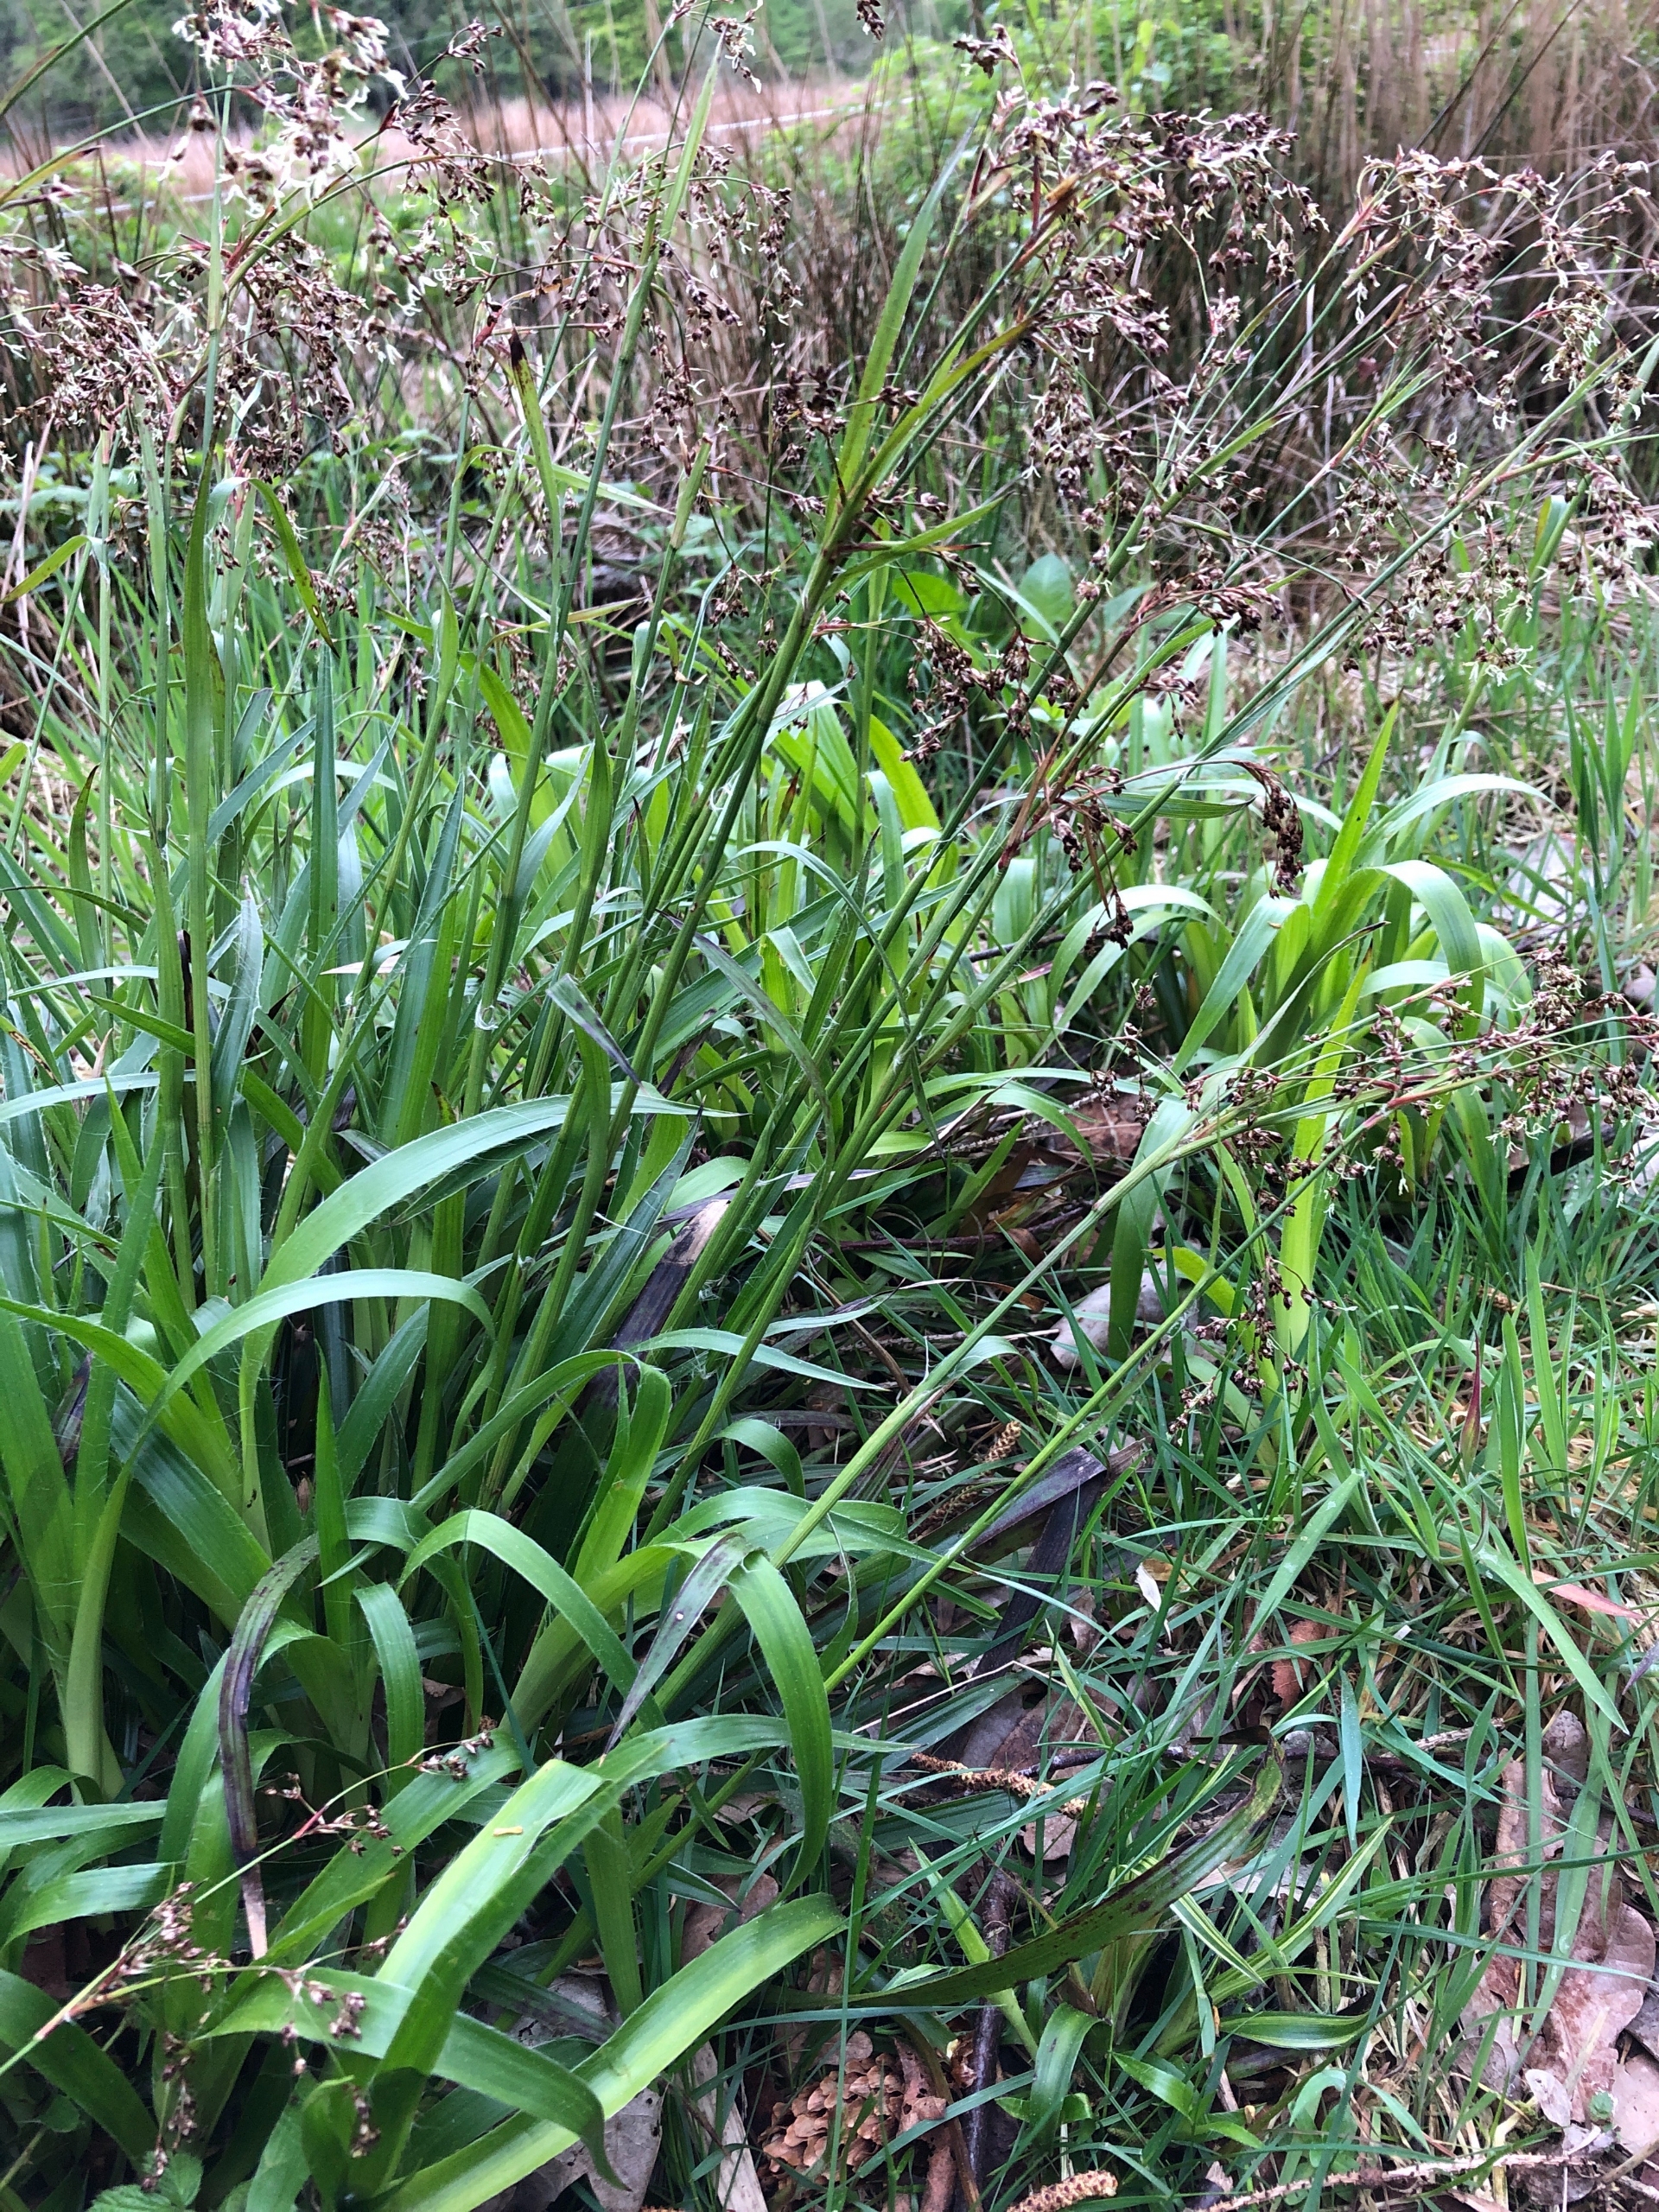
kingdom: Plantae
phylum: Tracheophyta
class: Liliopsida
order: Poales
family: Juncaceae
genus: Luzula
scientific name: Luzula sylvatica
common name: Stor frytle
